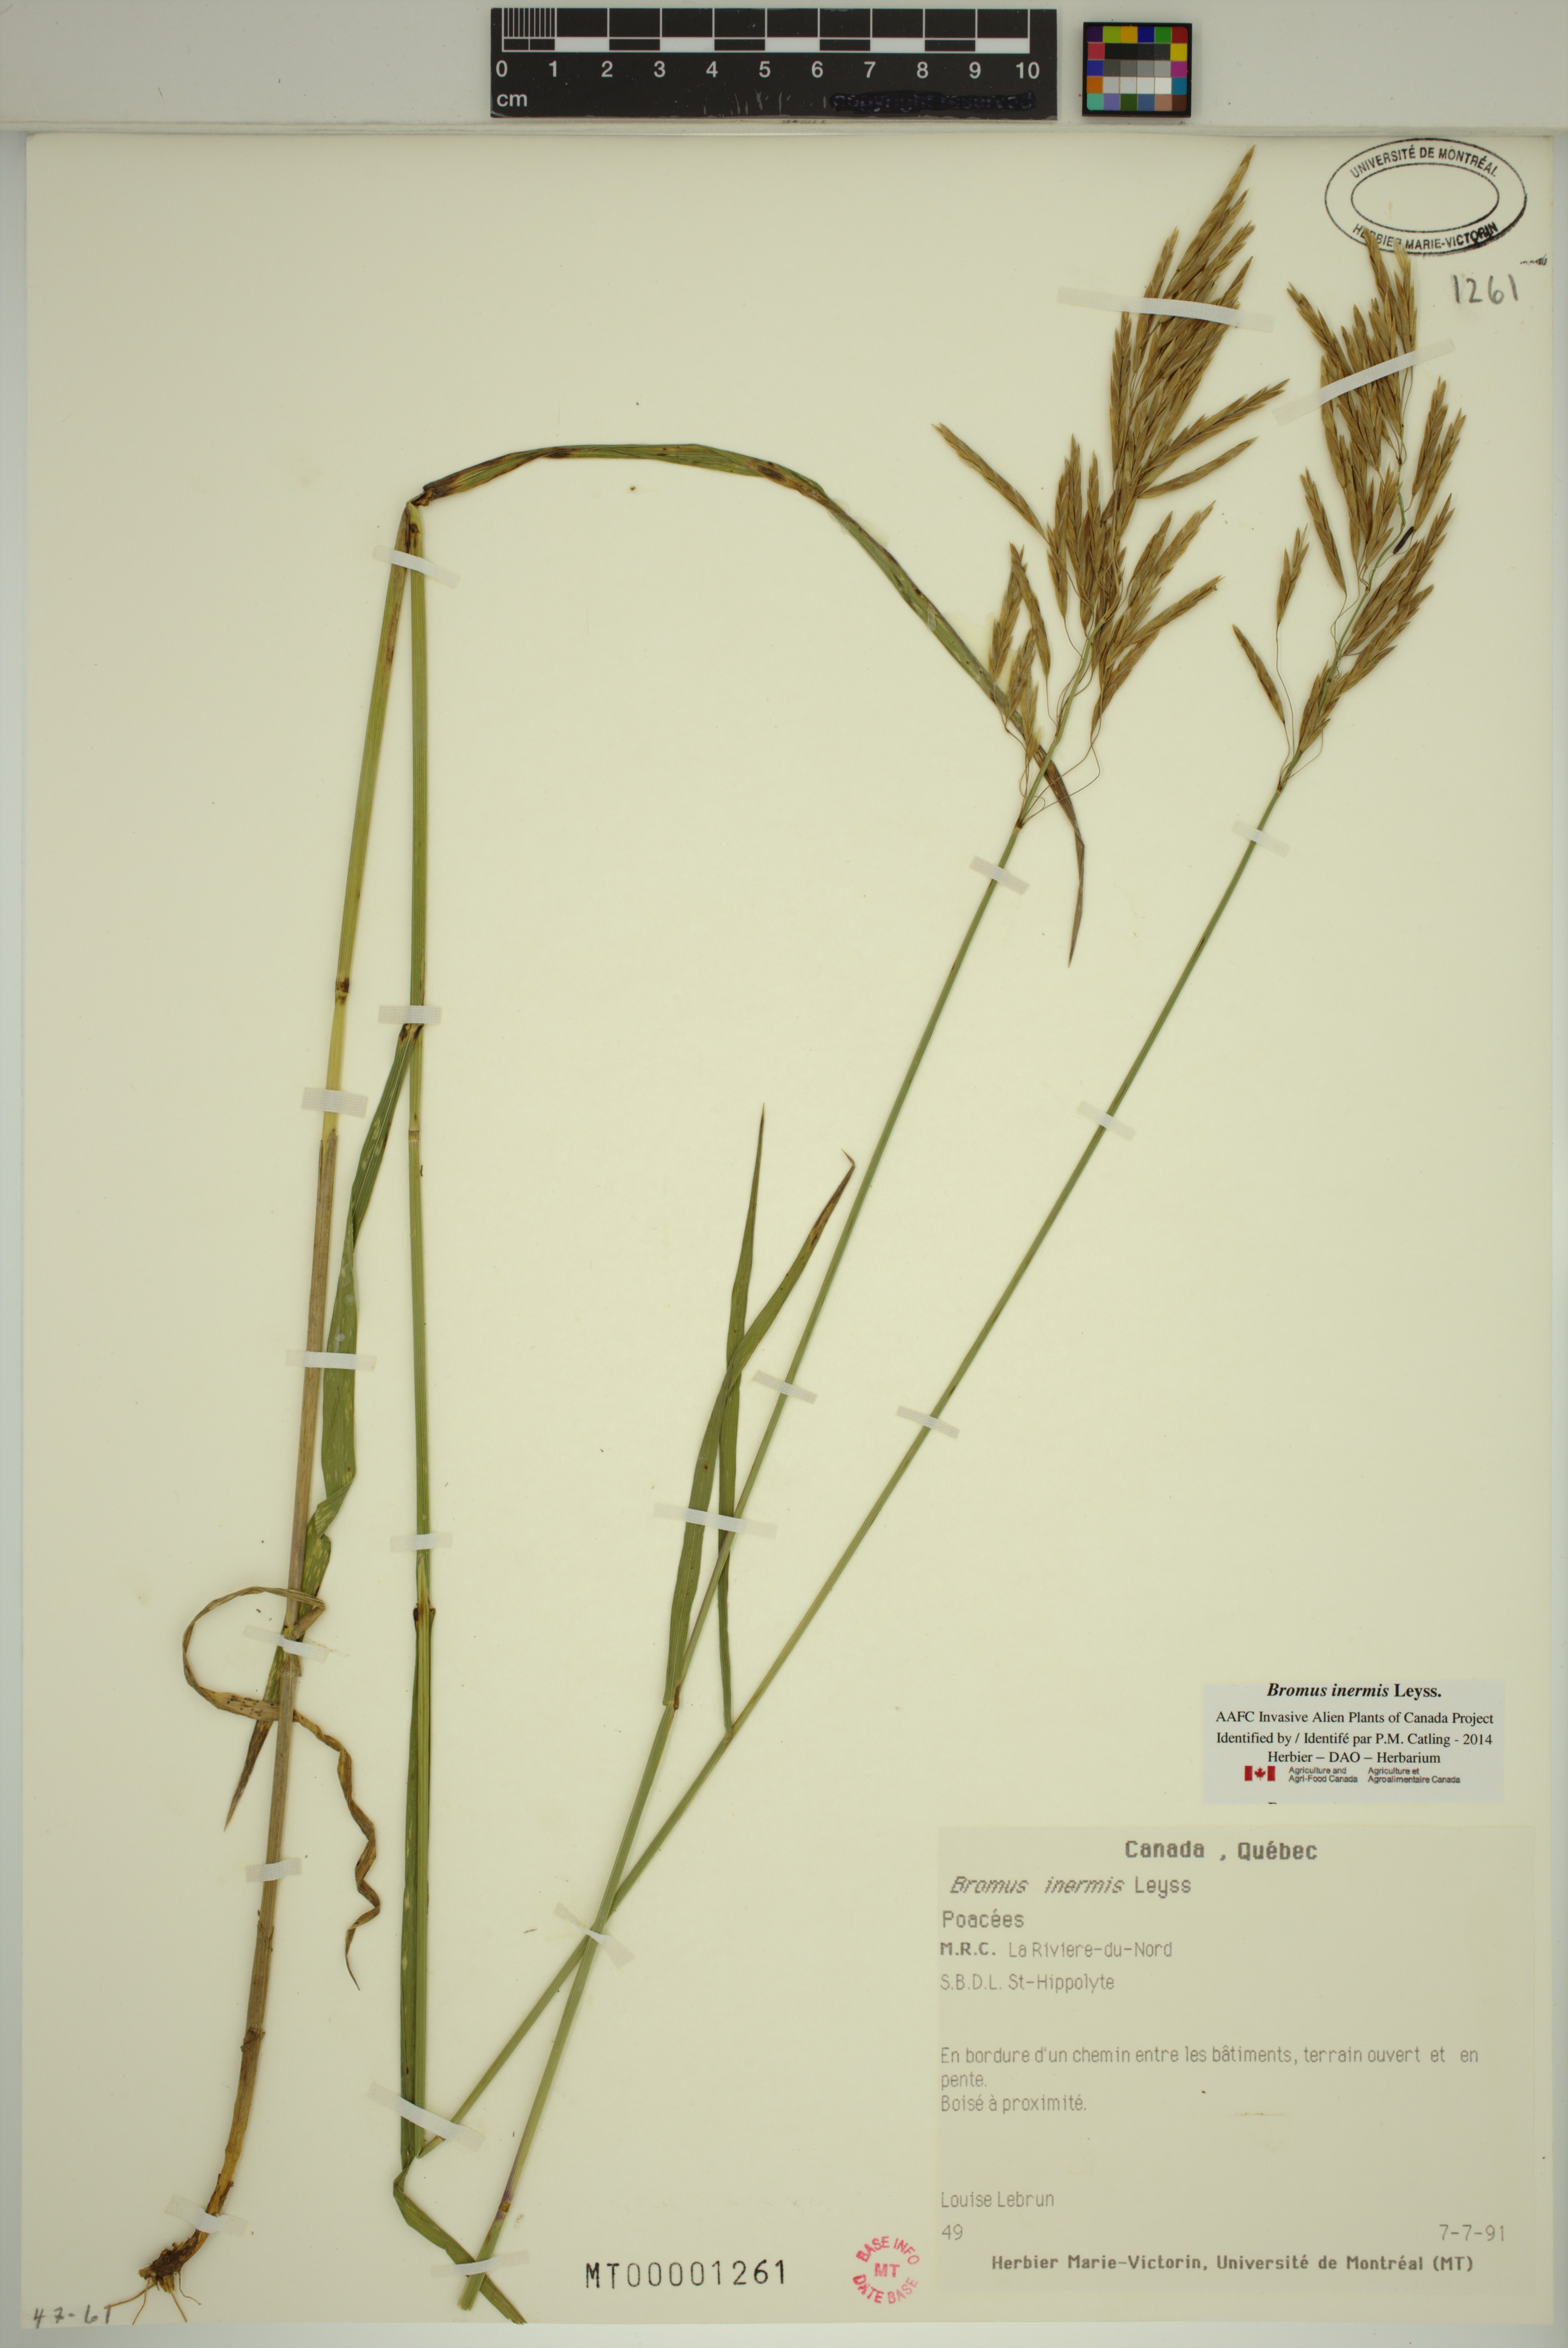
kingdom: Plantae
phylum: Tracheophyta
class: Liliopsida
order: Poales
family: Poaceae
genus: Bromus
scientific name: Bromus inermis
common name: Smooth brome
